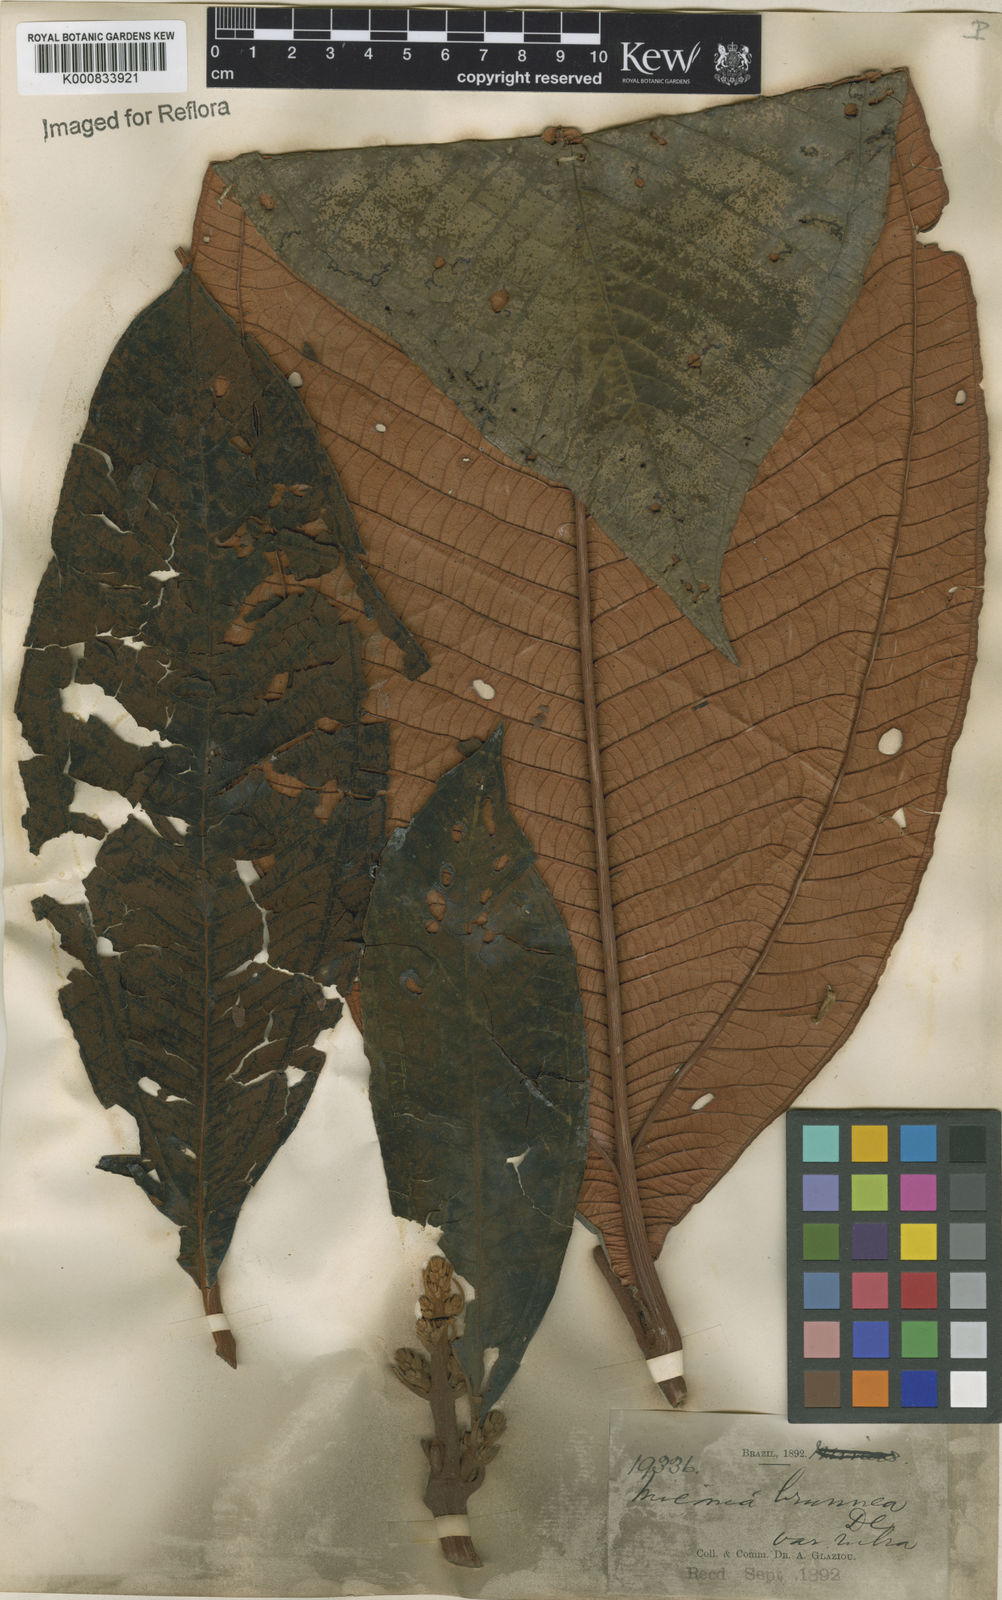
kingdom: Plantae
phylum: Tracheophyta
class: Magnoliopsida
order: Myrtales
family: Melastomataceae
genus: Miconia
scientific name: Miconia brunnea
